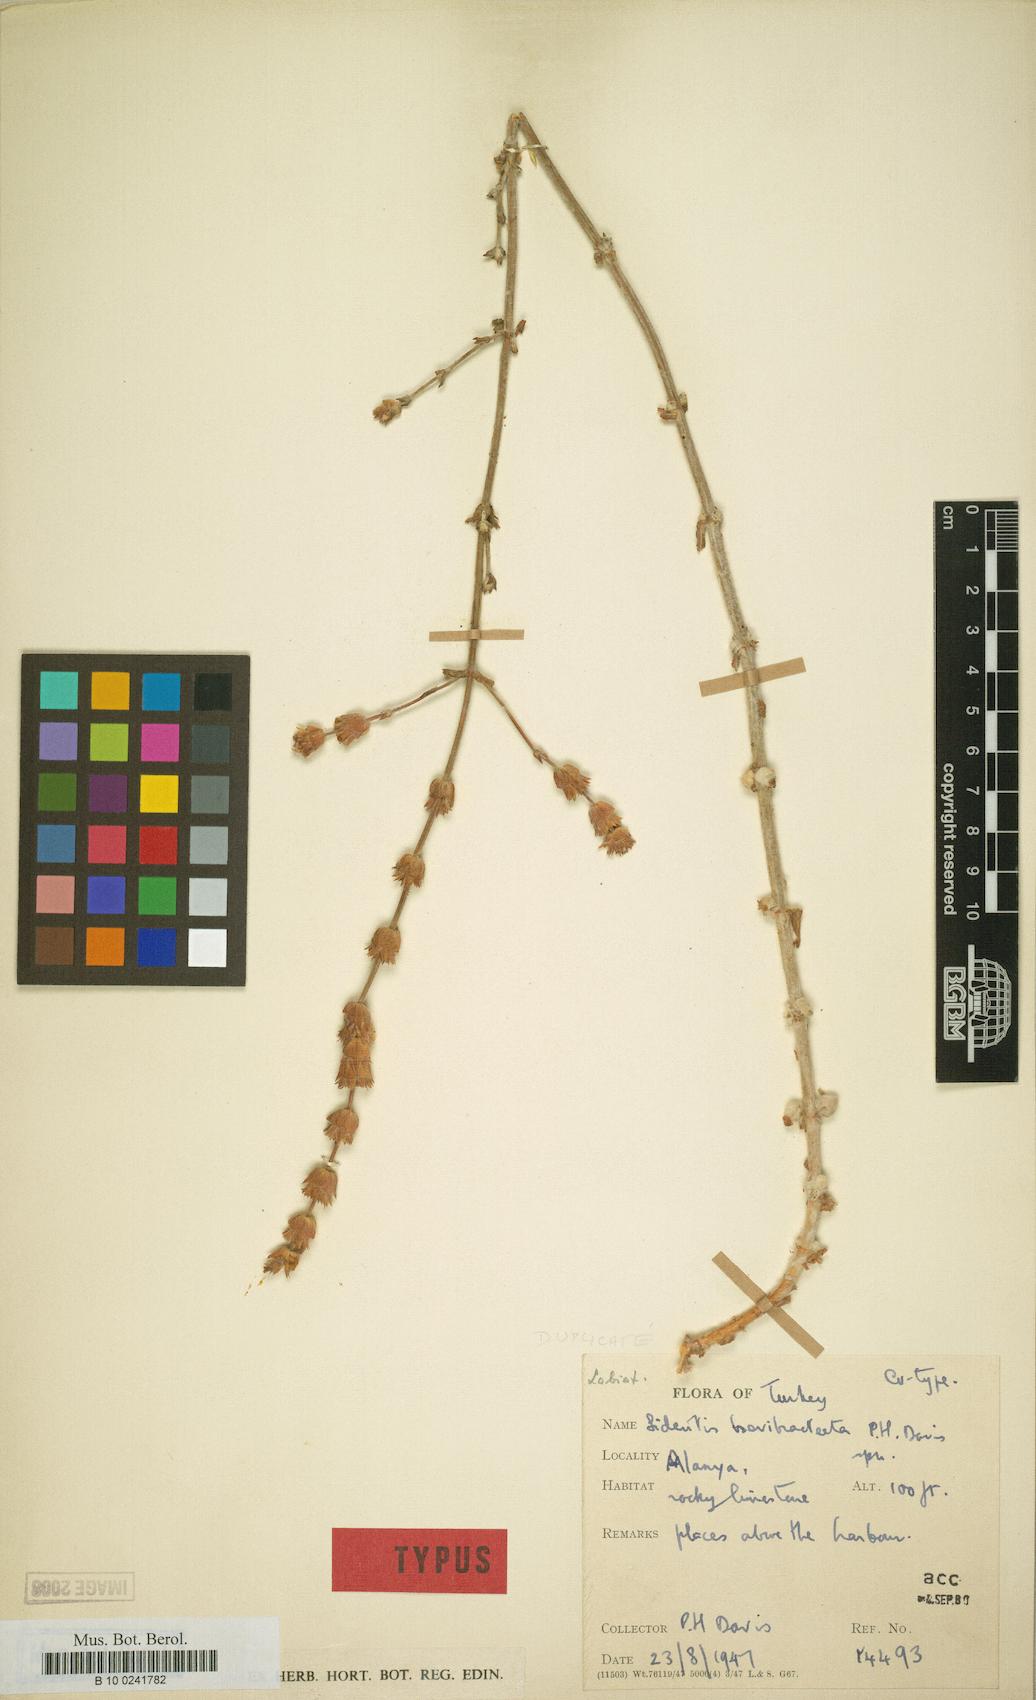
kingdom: Plantae
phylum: Tracheophyta
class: Magnoliopsida
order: Lamiales
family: Lamiaceae
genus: Sideritis
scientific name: Sideritis brevibracteata
